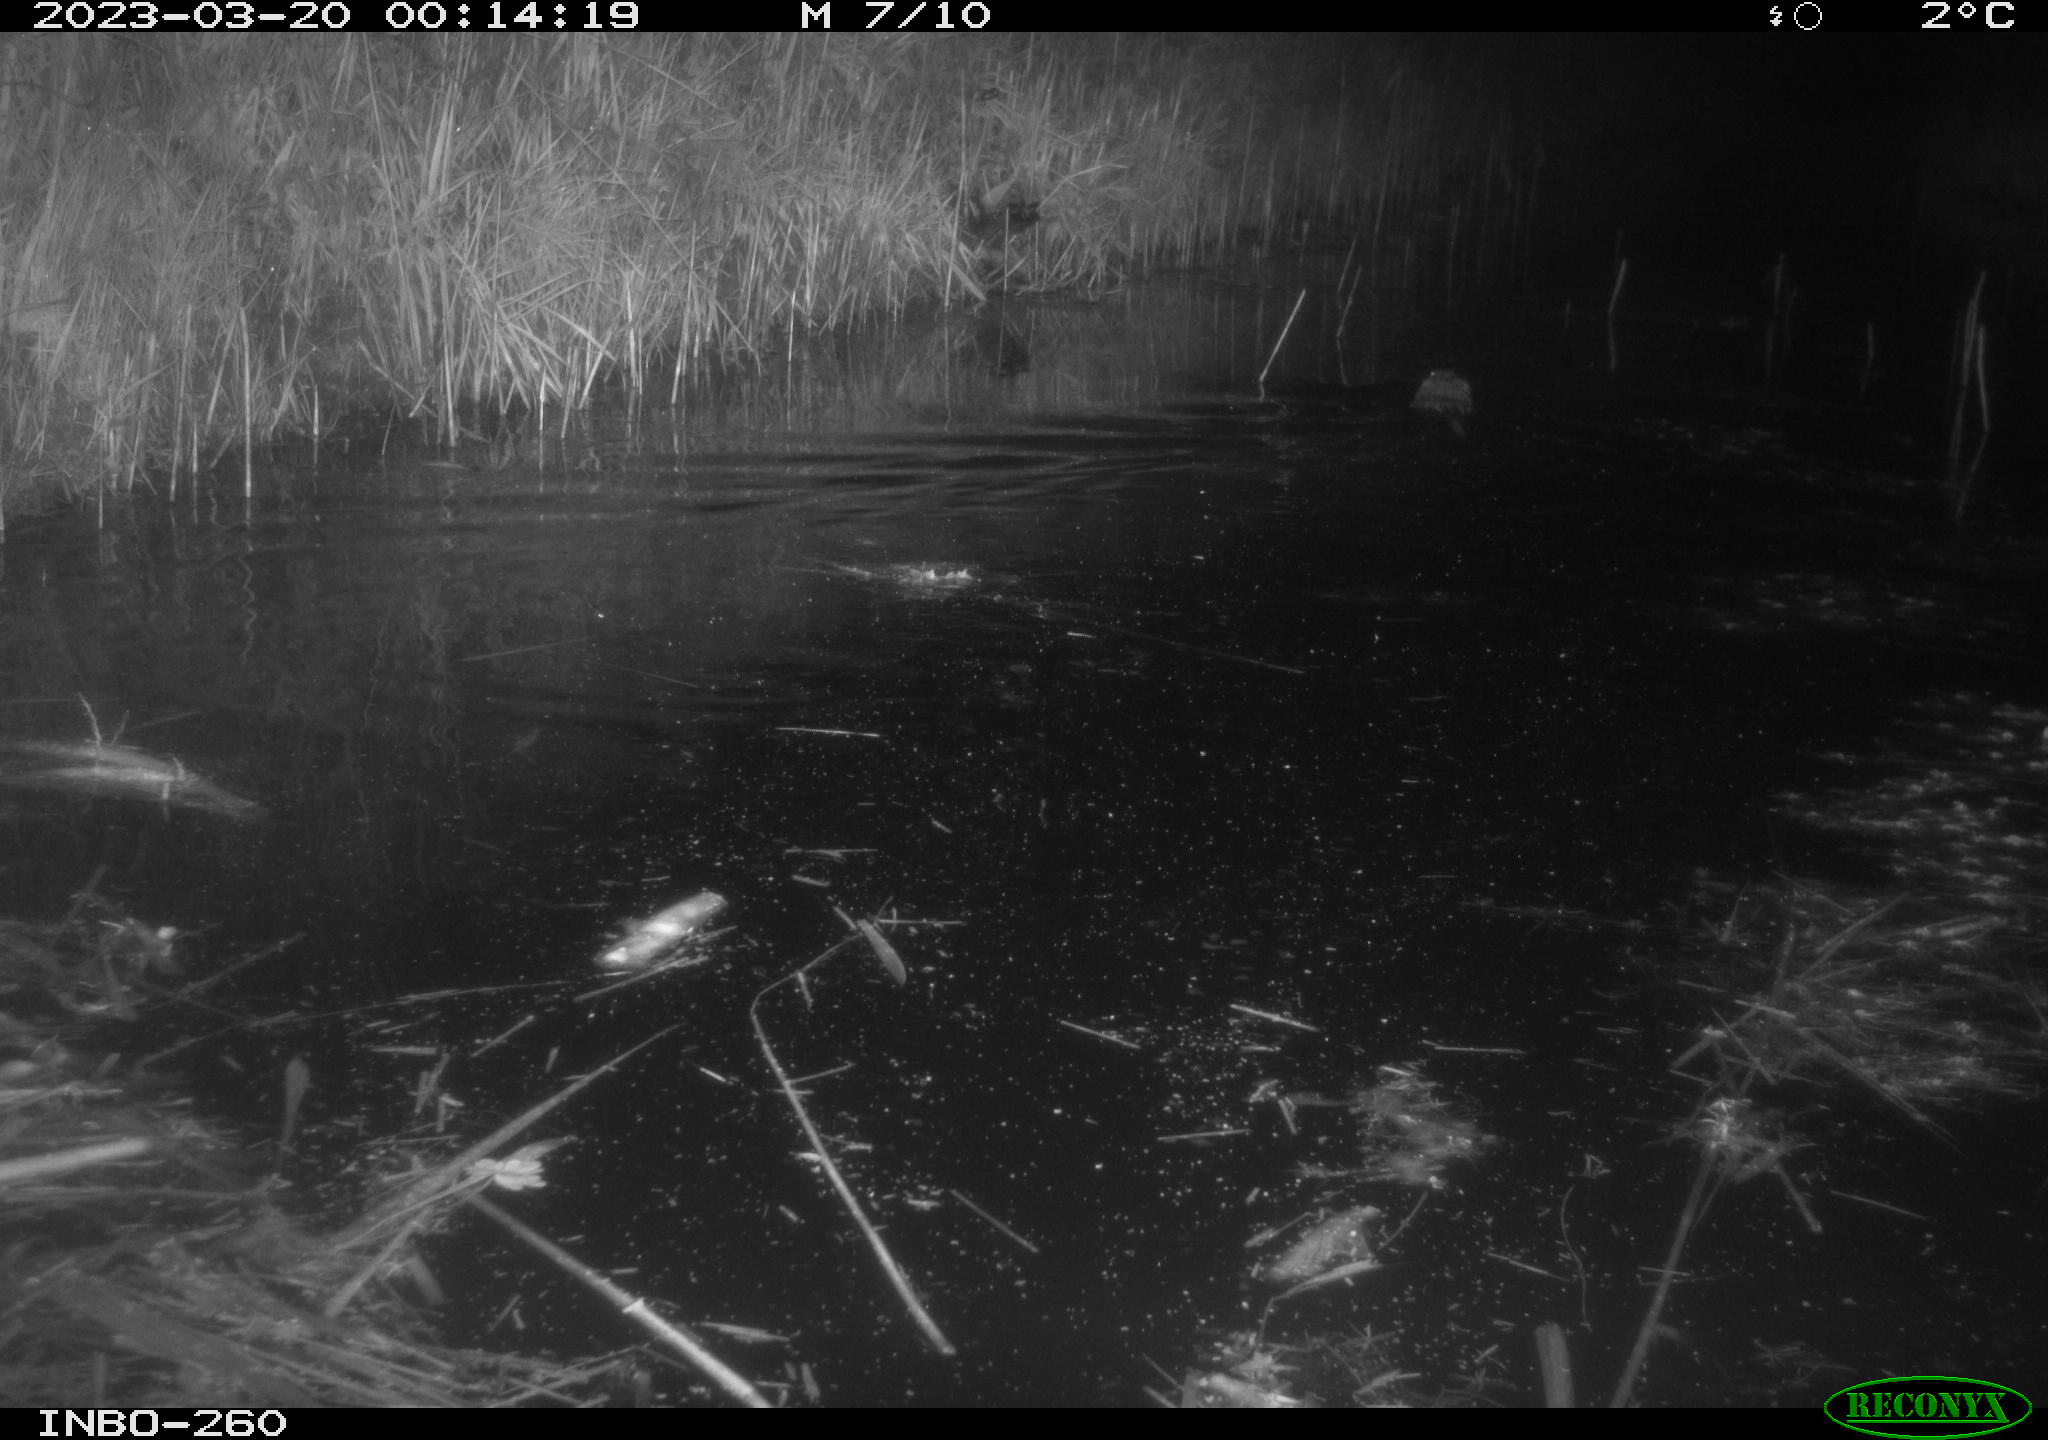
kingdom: Animalia
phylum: Chordata
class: Mammalia
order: Rodentia
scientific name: Rodentia
